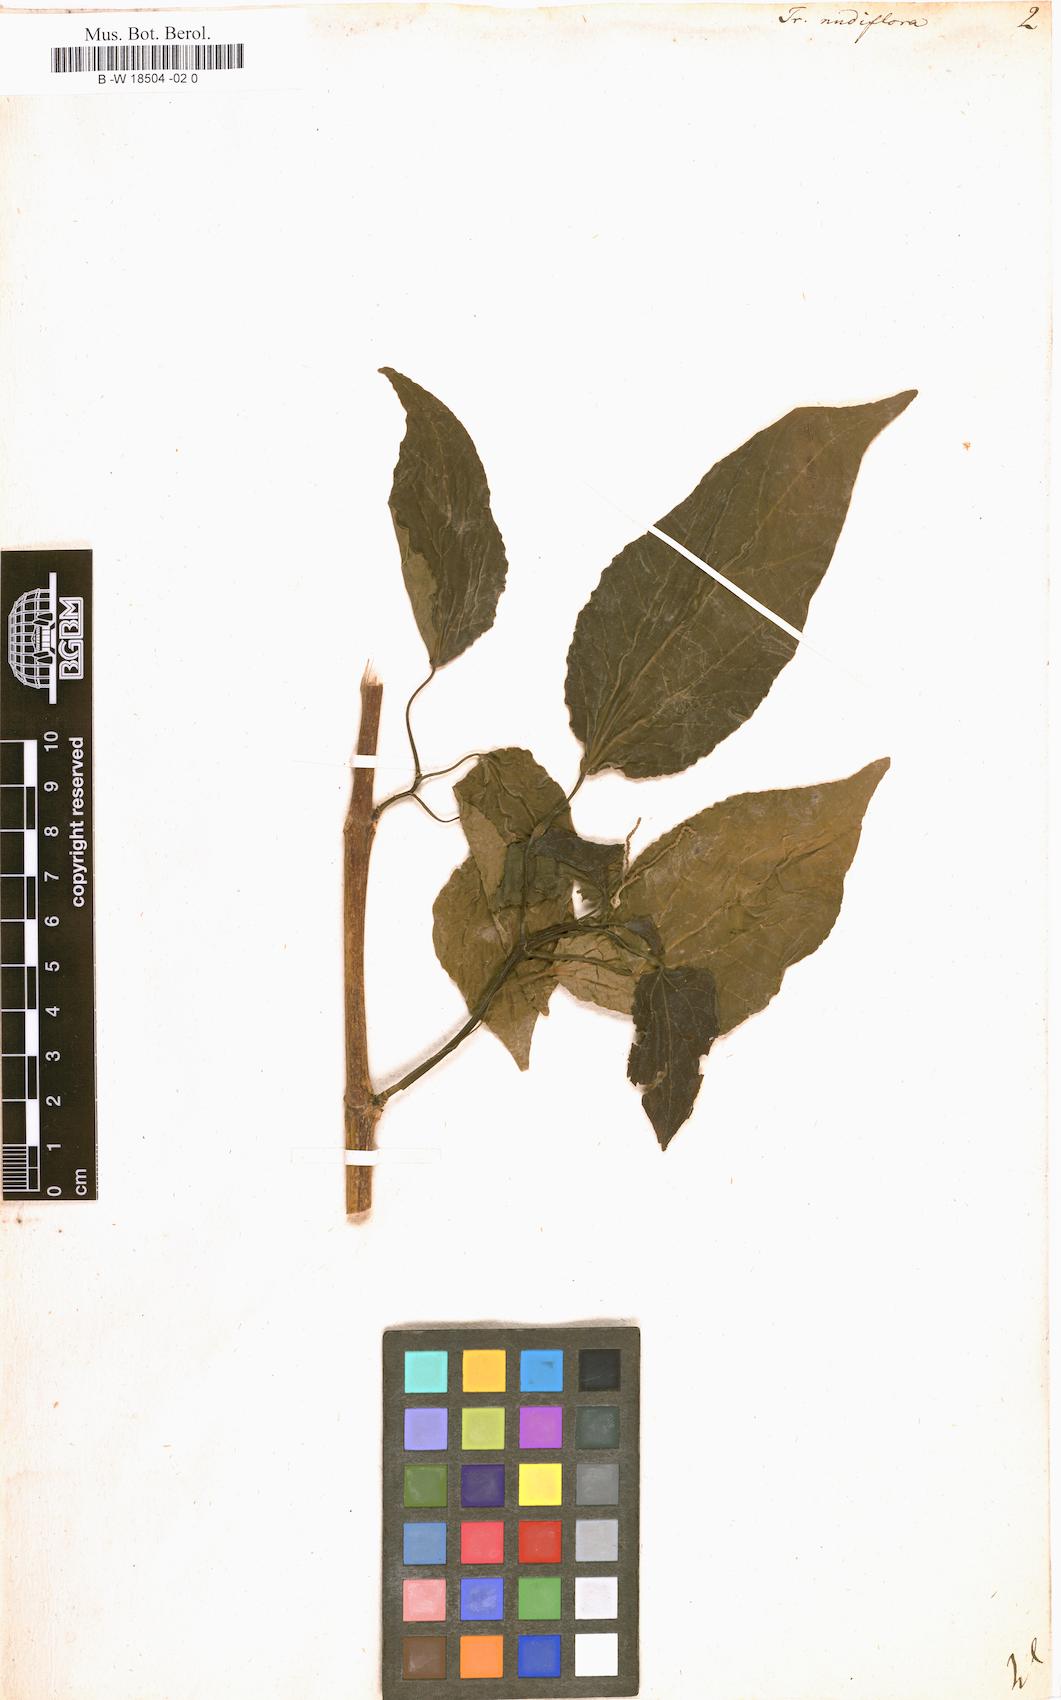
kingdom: Plantae
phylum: Tracheophyta
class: Magnoliopsida
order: Malpighiales
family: Euphorbiaceae
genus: Mallotus
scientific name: Mallotus nudiflorus
